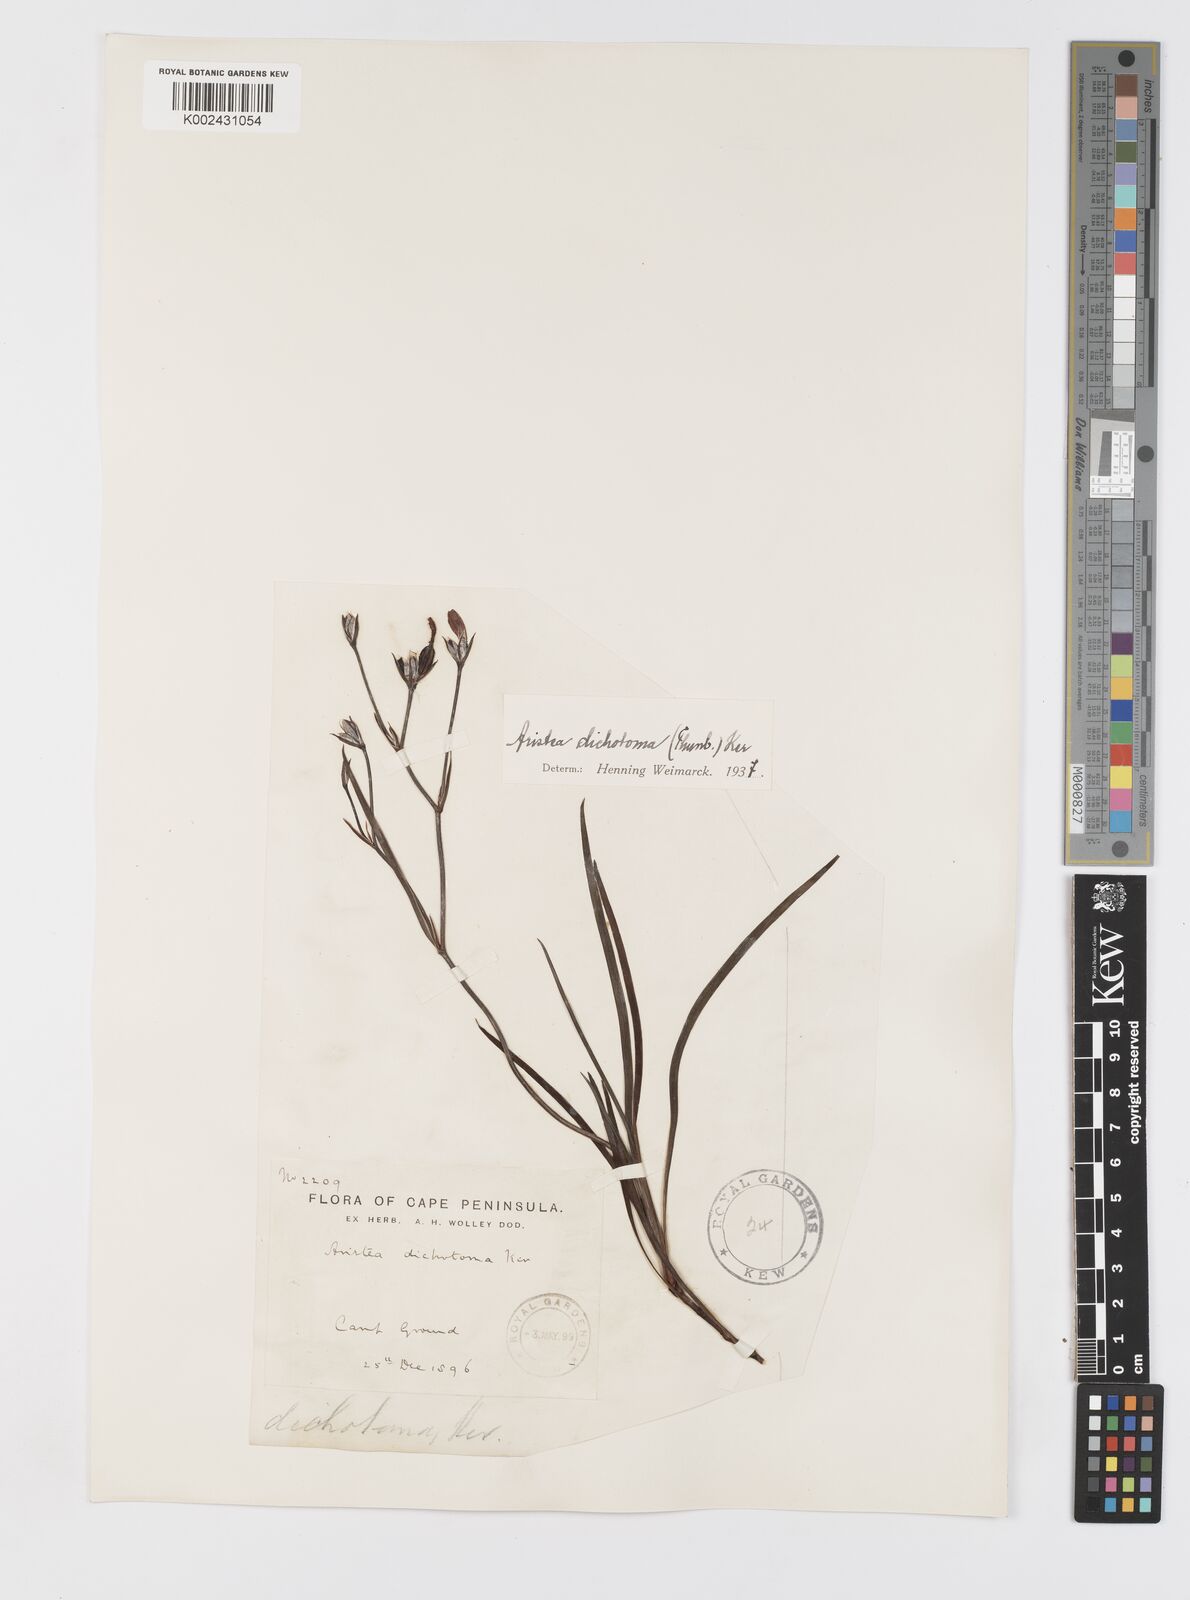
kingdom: Plantae
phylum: Tracheophyta
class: Liliopsida
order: Asparagales
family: Iridaceae
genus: Aristea
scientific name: Aristea dichotoma
